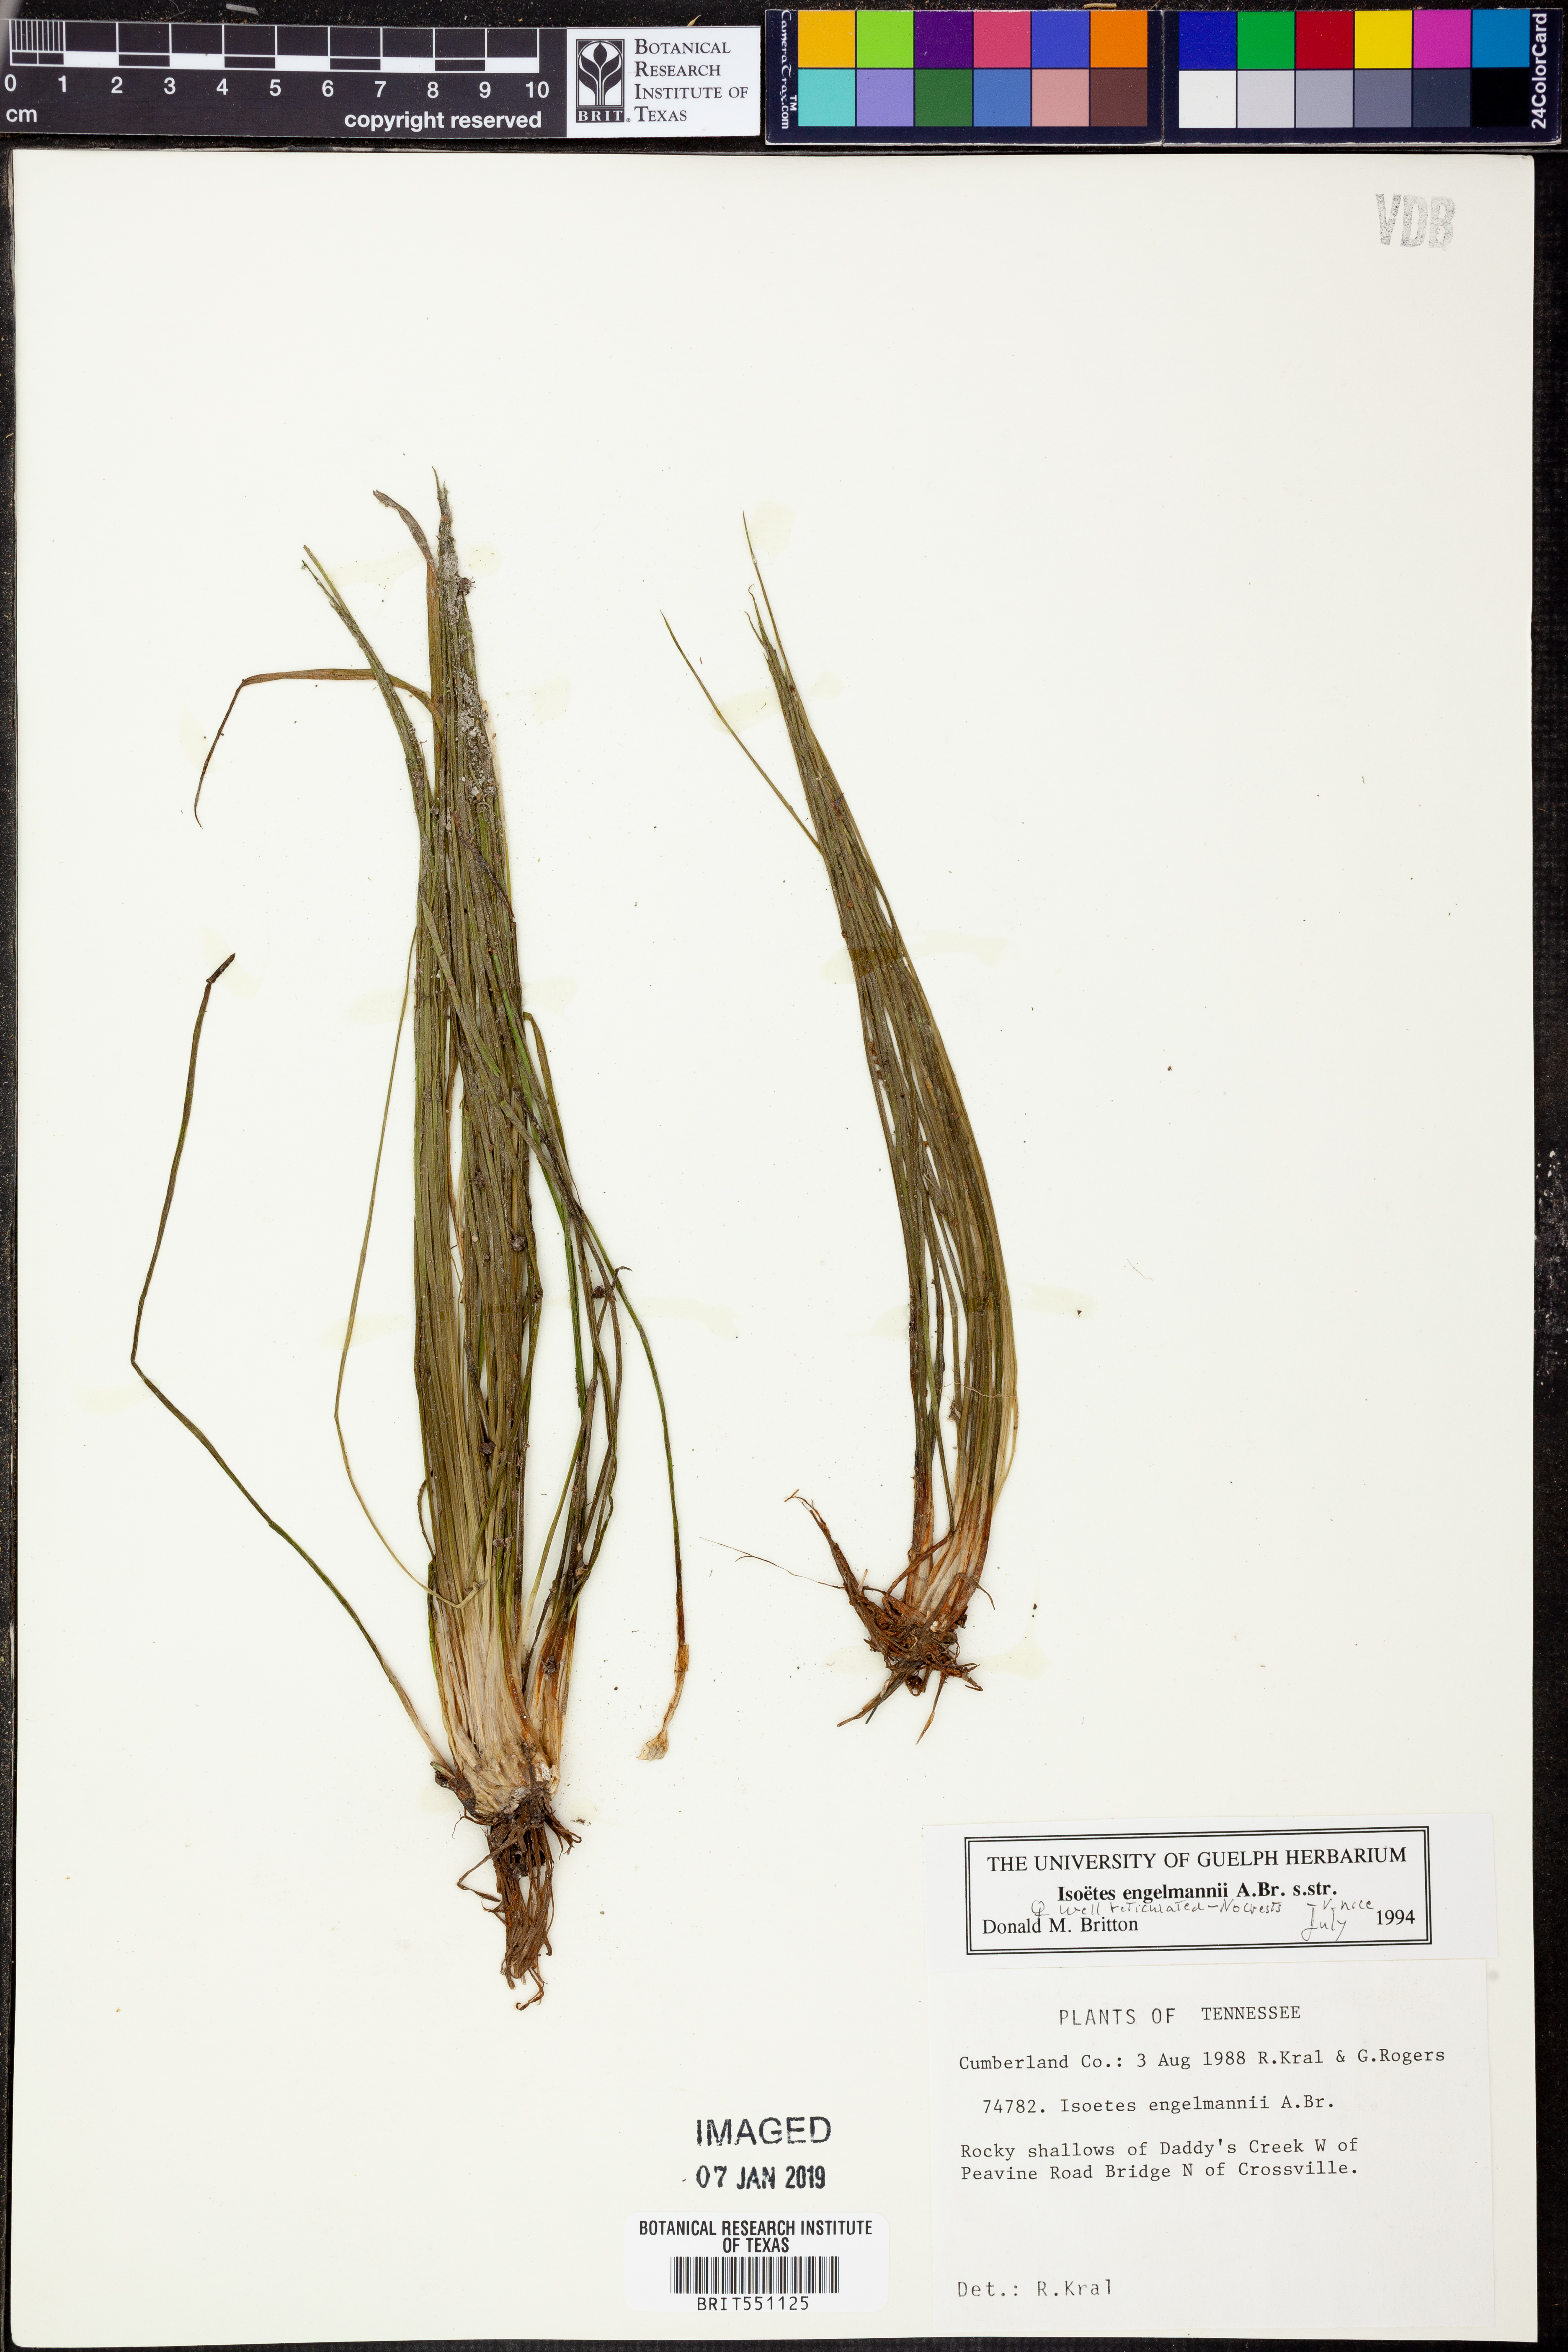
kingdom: Plantae
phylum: Tracheophyta
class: Lycopodiopsida
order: Isoetales
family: Isoetaceae
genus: Isoetes
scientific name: Isoetes engelmannii
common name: Engelmann's quillwort
